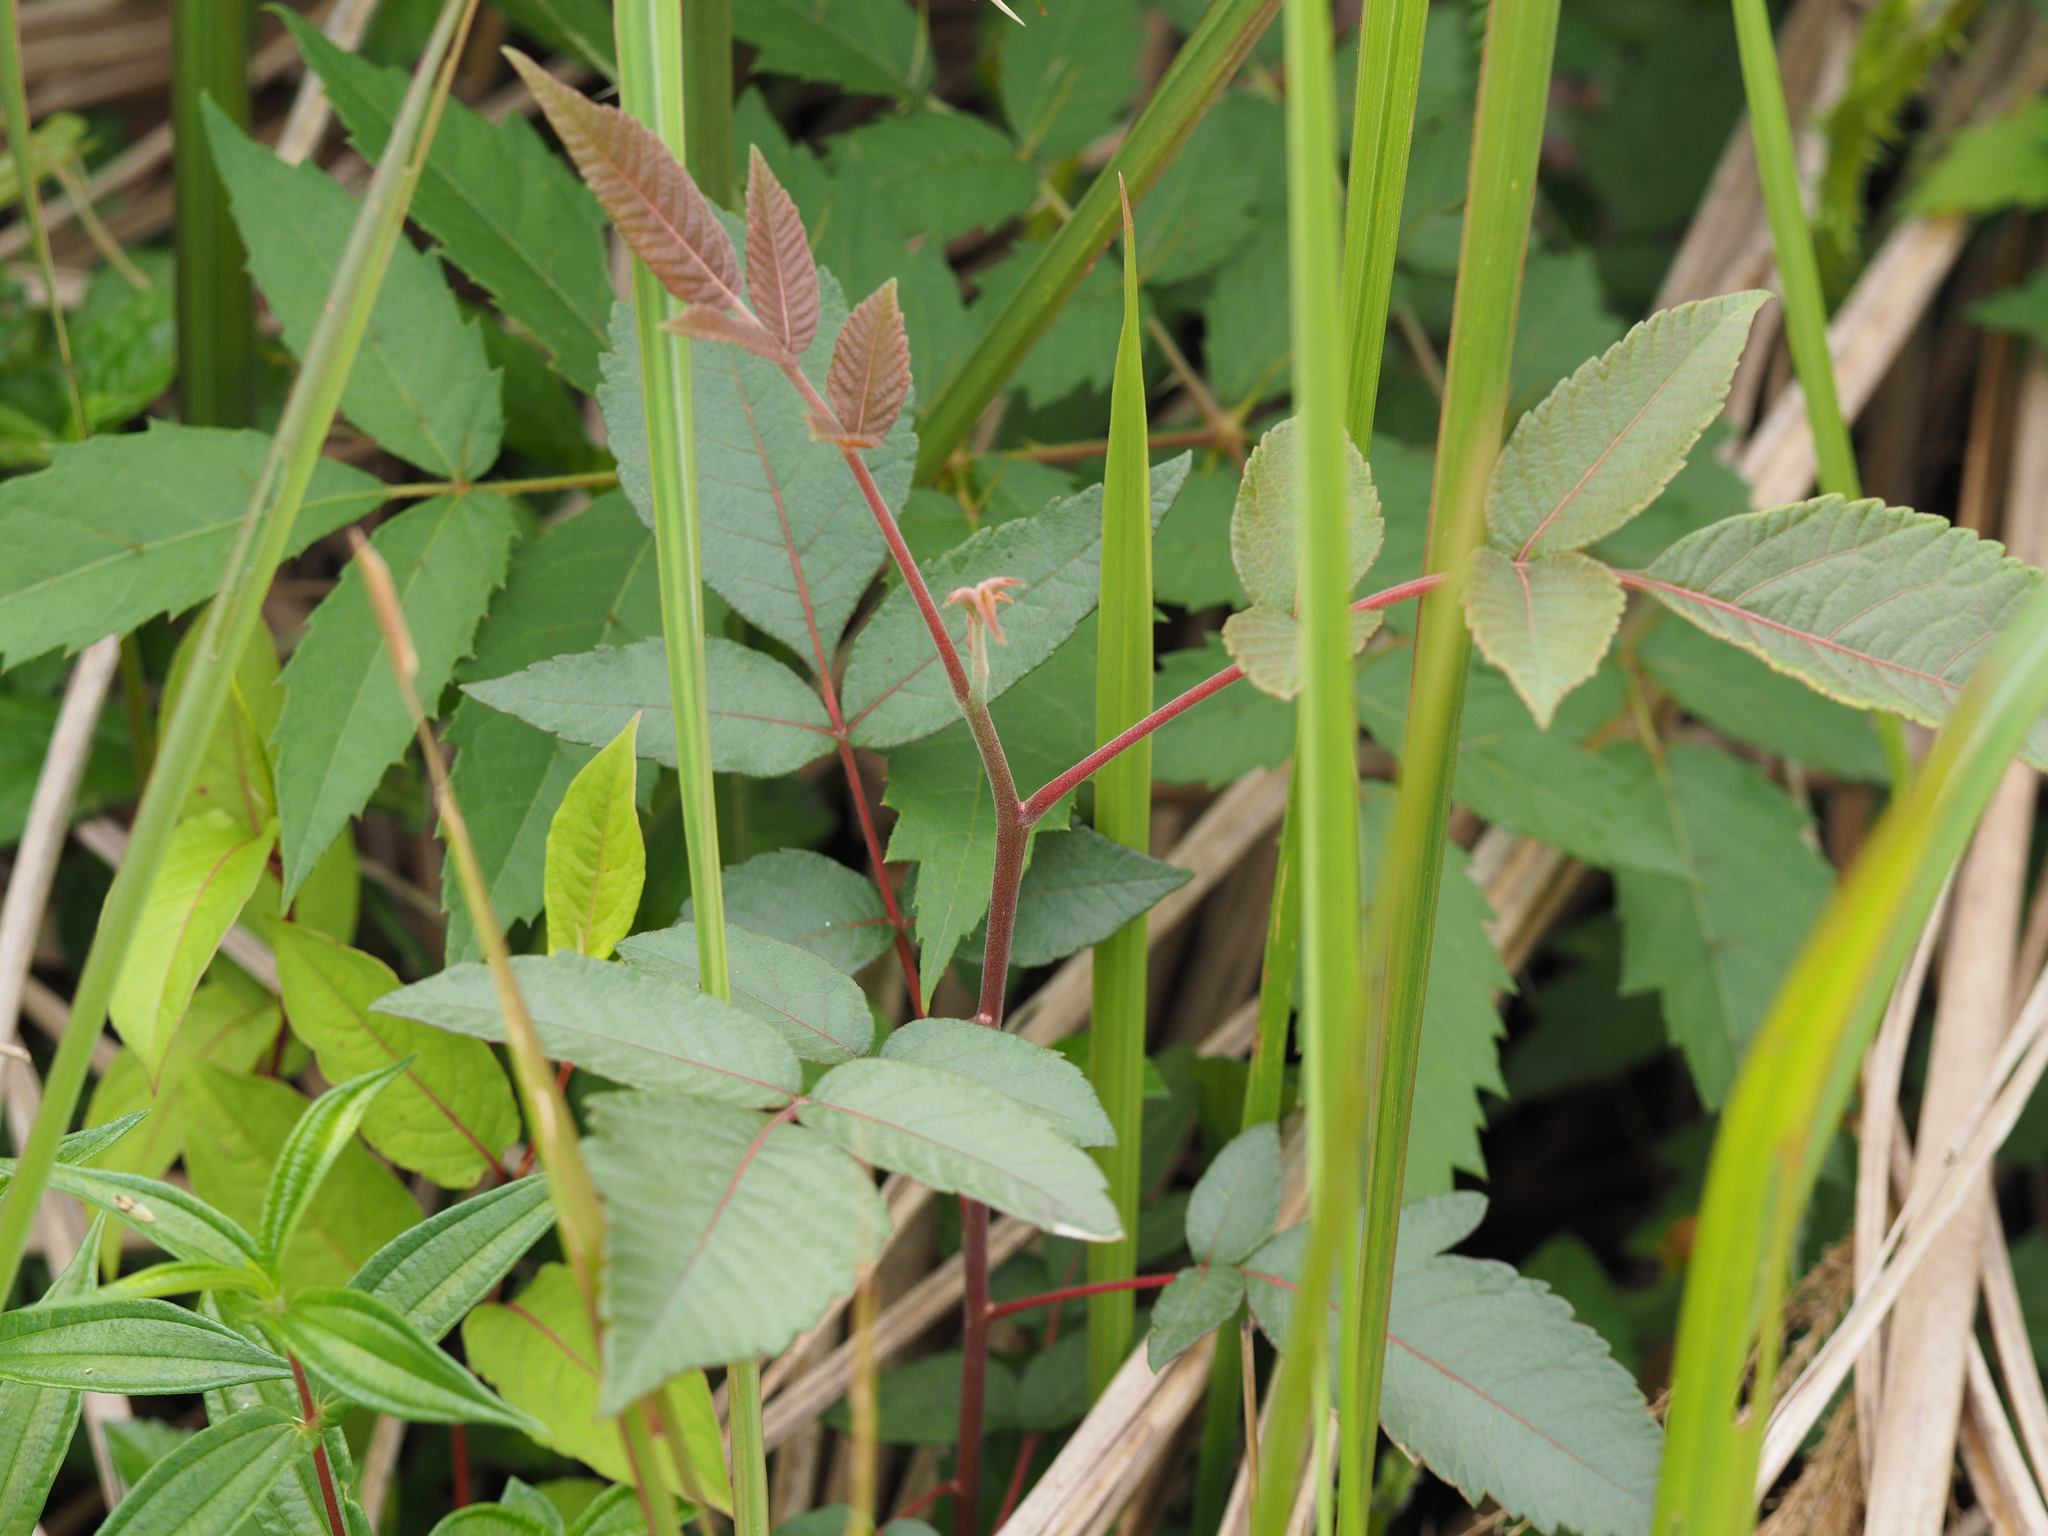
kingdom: Plantae
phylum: Tracheophyta
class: Magnoliopsida
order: Sapindales
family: Anacardiaceae
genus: Rhus
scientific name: Rhus chinensis
